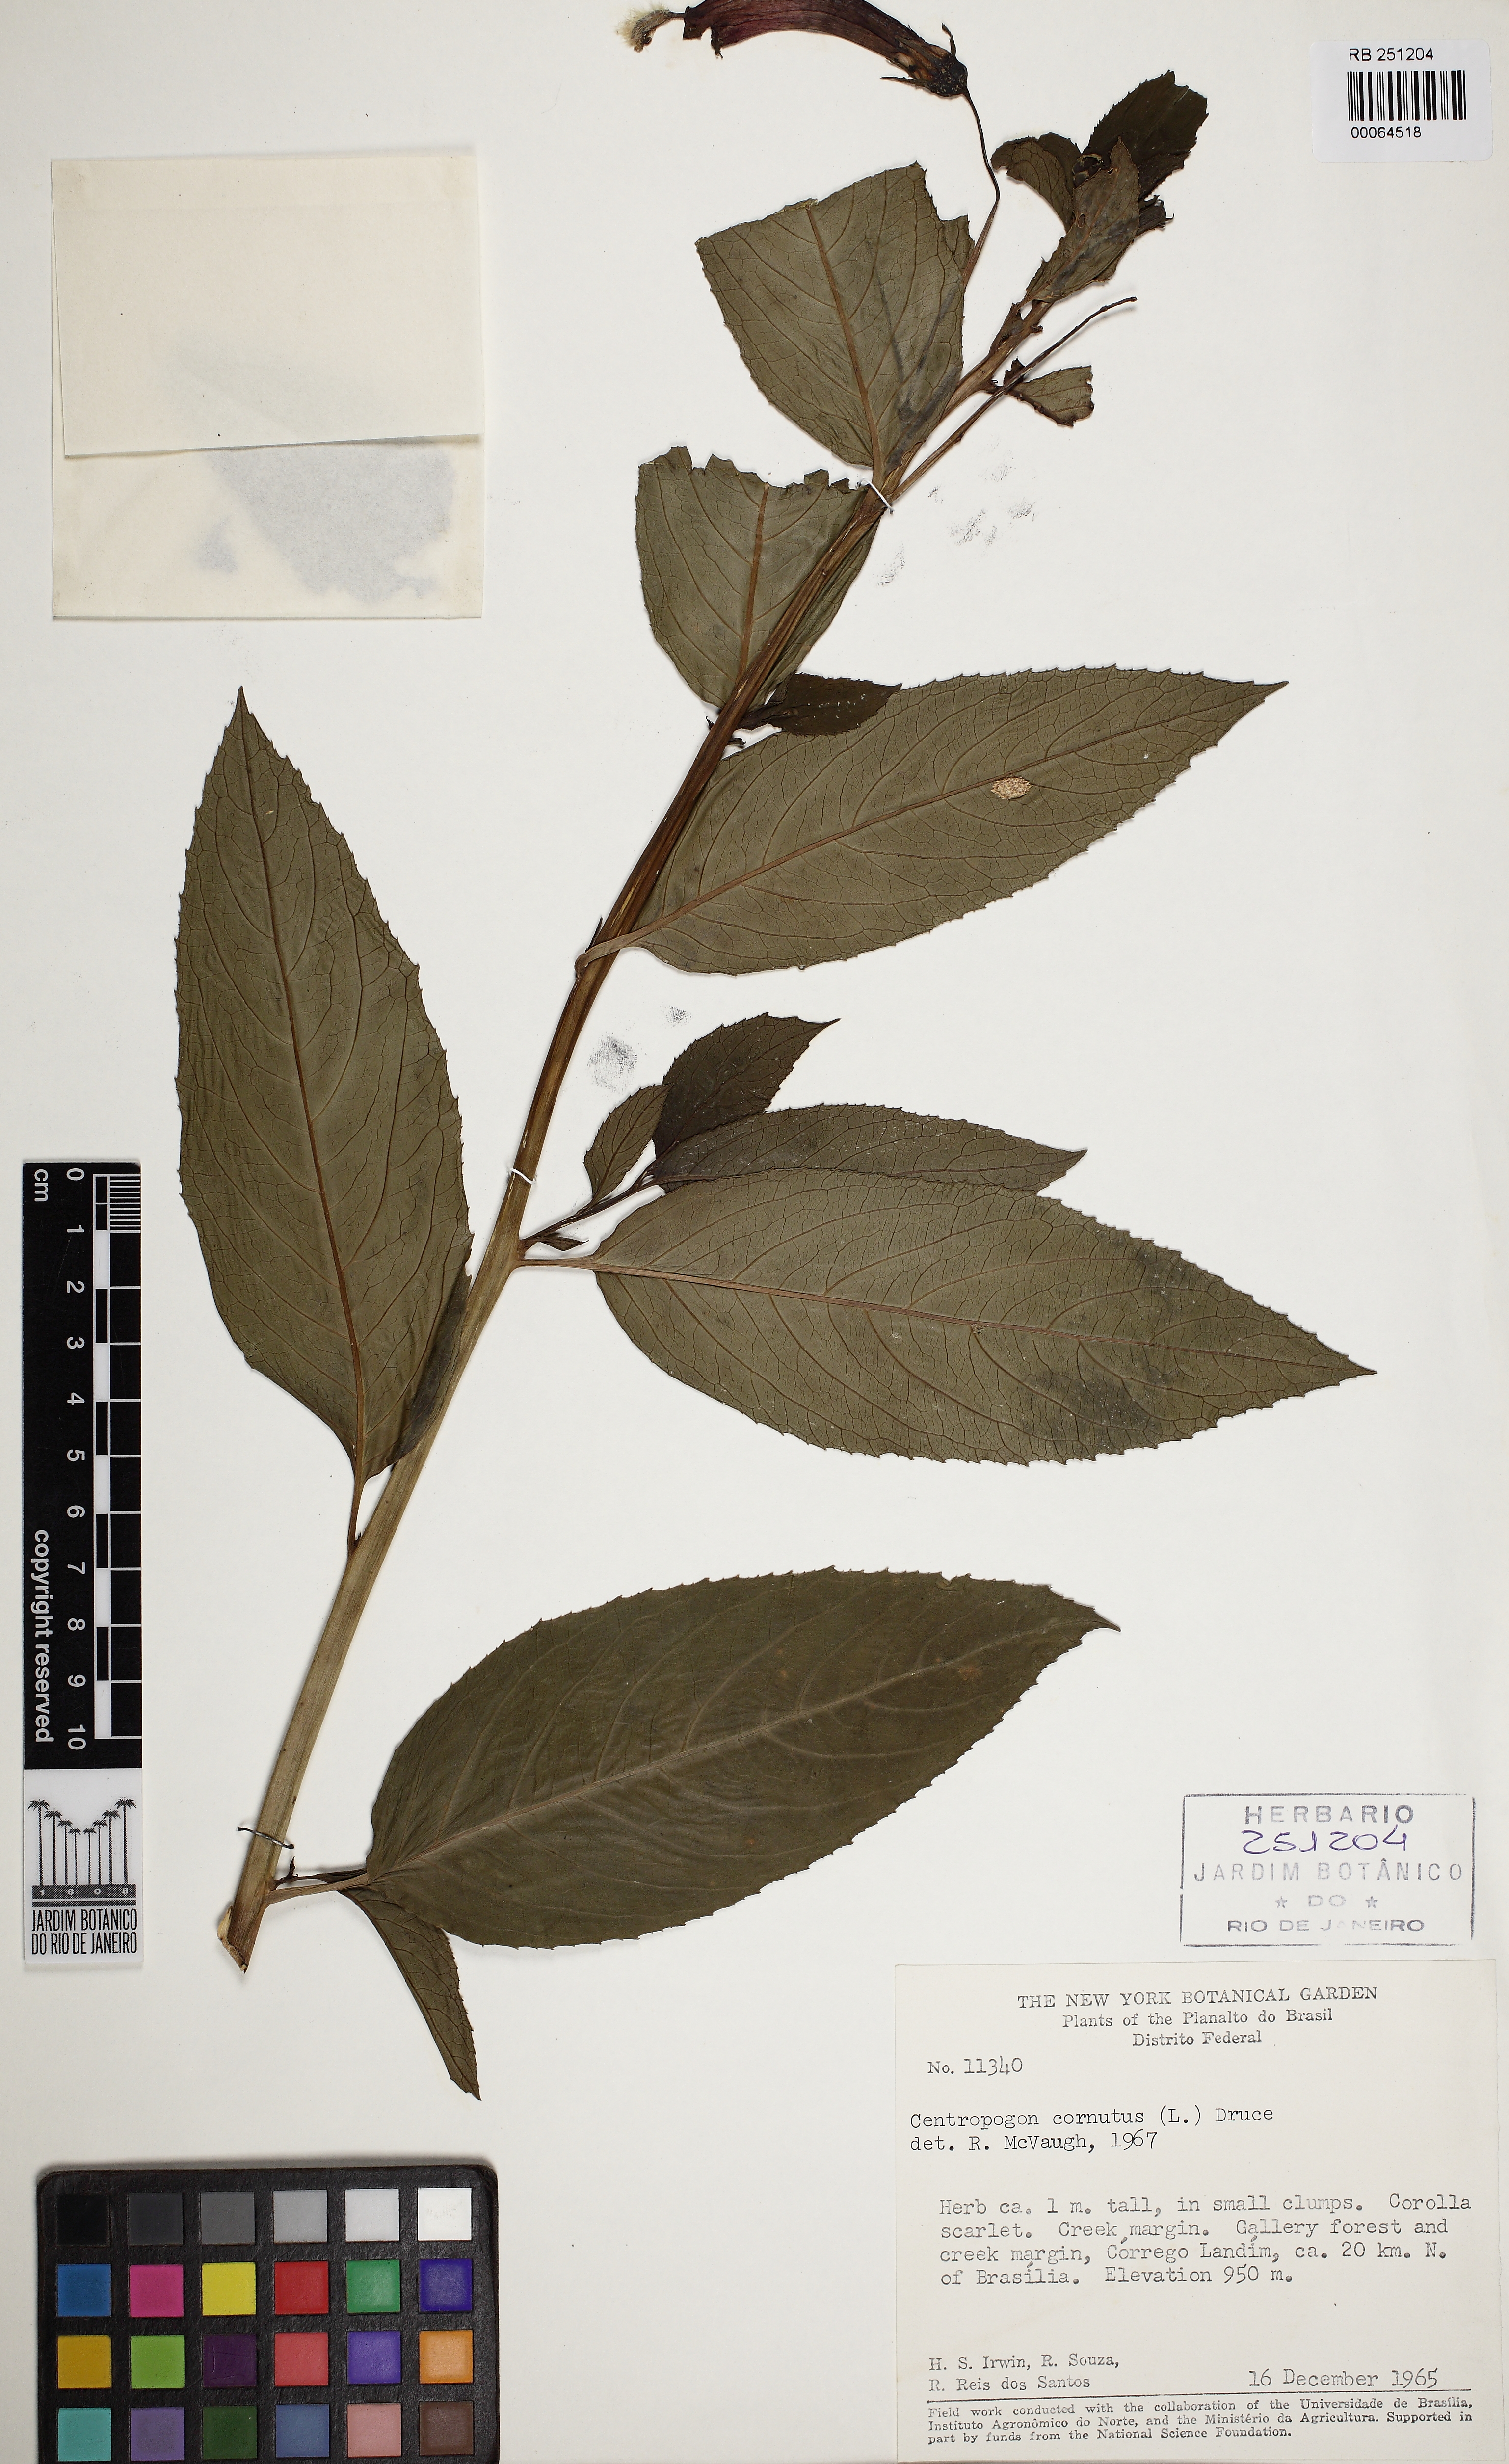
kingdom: Plantae
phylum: Tracheophyta
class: Magnoliopsida
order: Asterales
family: Campanulaceae
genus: Centropogon
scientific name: Centropogon cornutus
